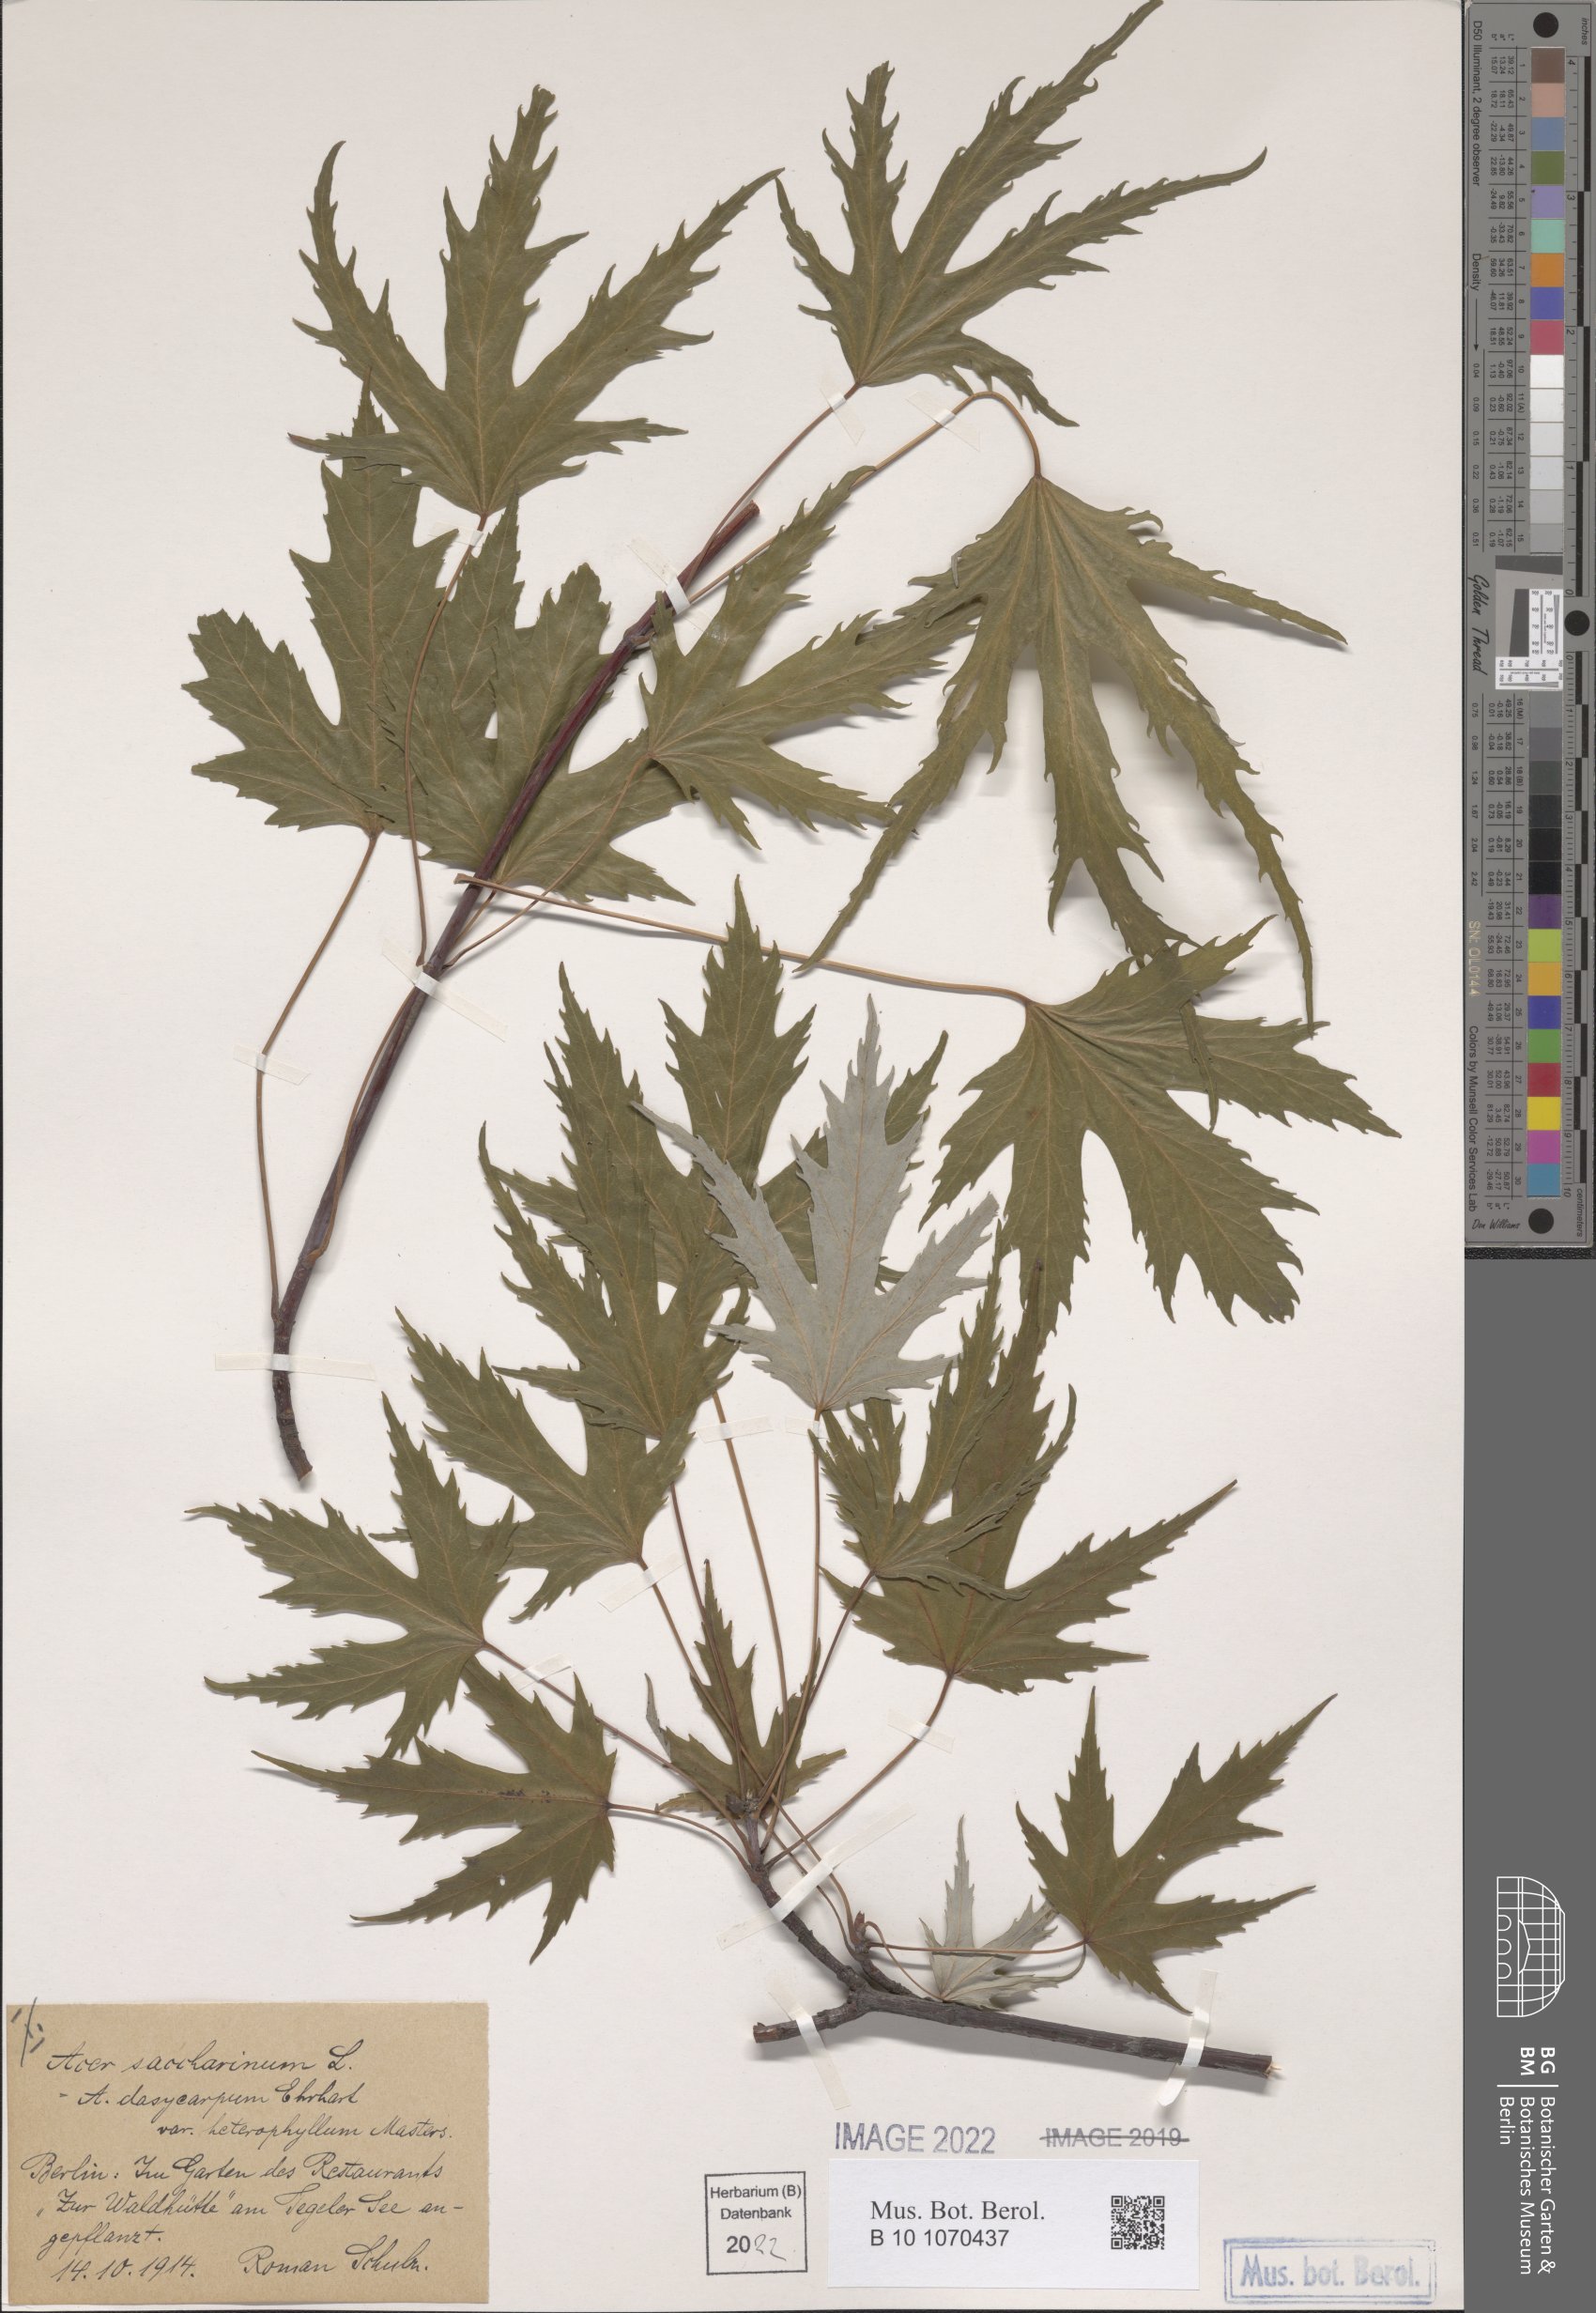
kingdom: Plantae
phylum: Tracheophyta
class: Magnoliopsida
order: Sapindales
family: Sapindaceae
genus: Acer
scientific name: Acer saccharinum
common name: Silver maple
